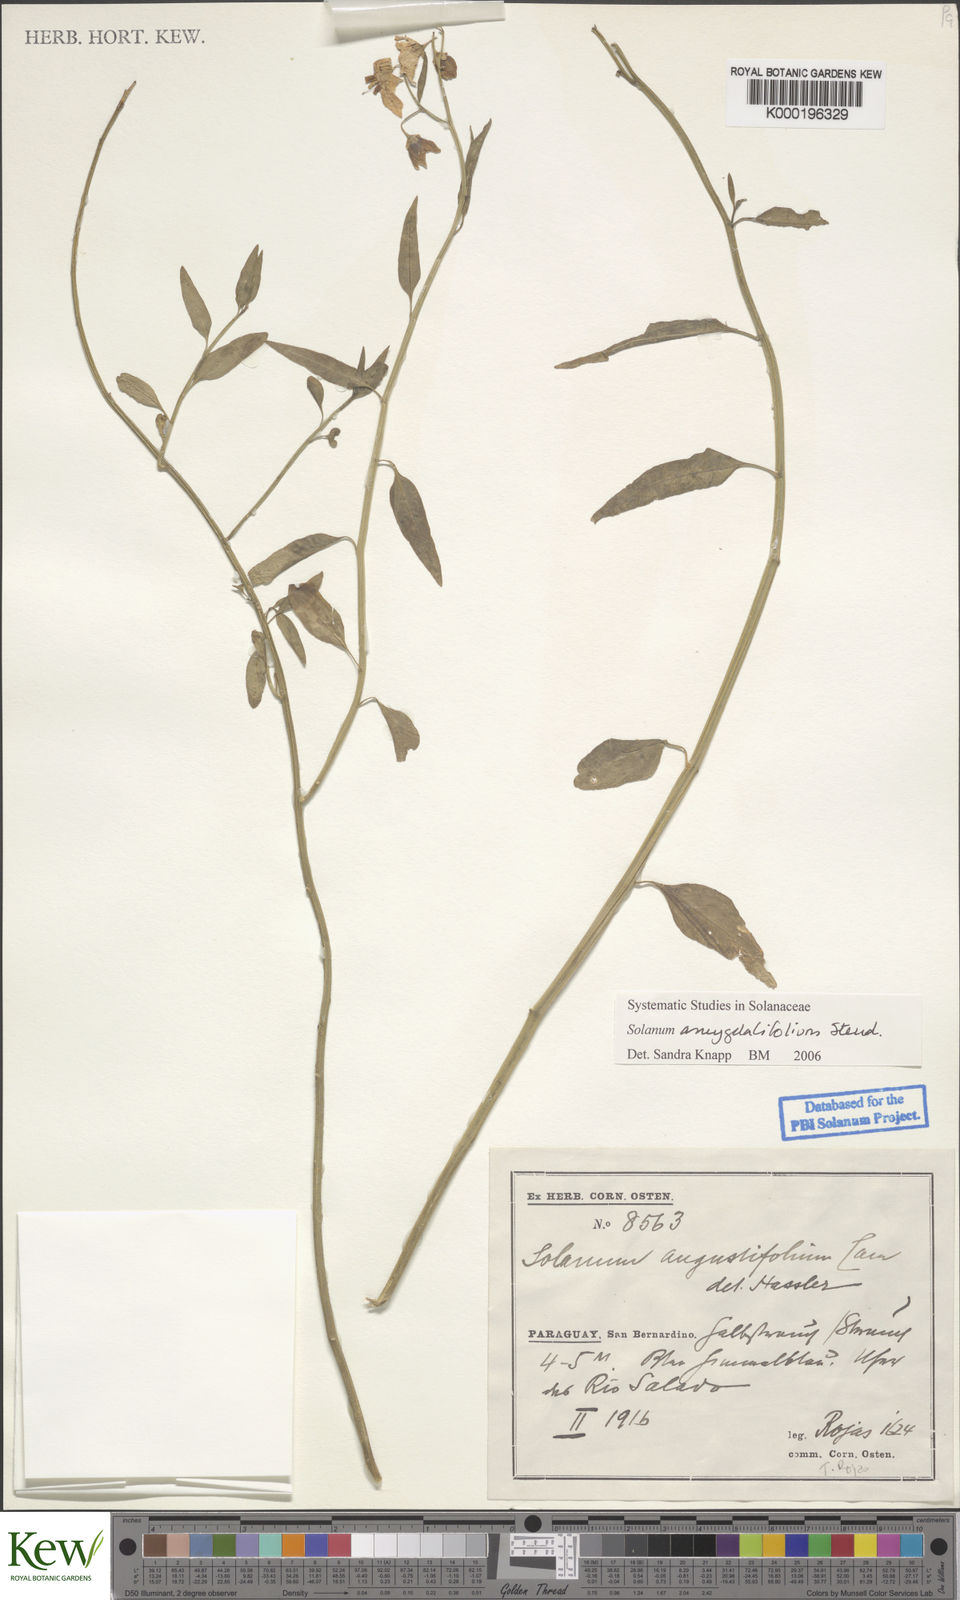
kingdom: Plantae
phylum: Tracheophyta
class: Magnoliopsida
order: Solanales
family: Solanaceae
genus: Solanum
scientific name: Solanum amygdalifolium
